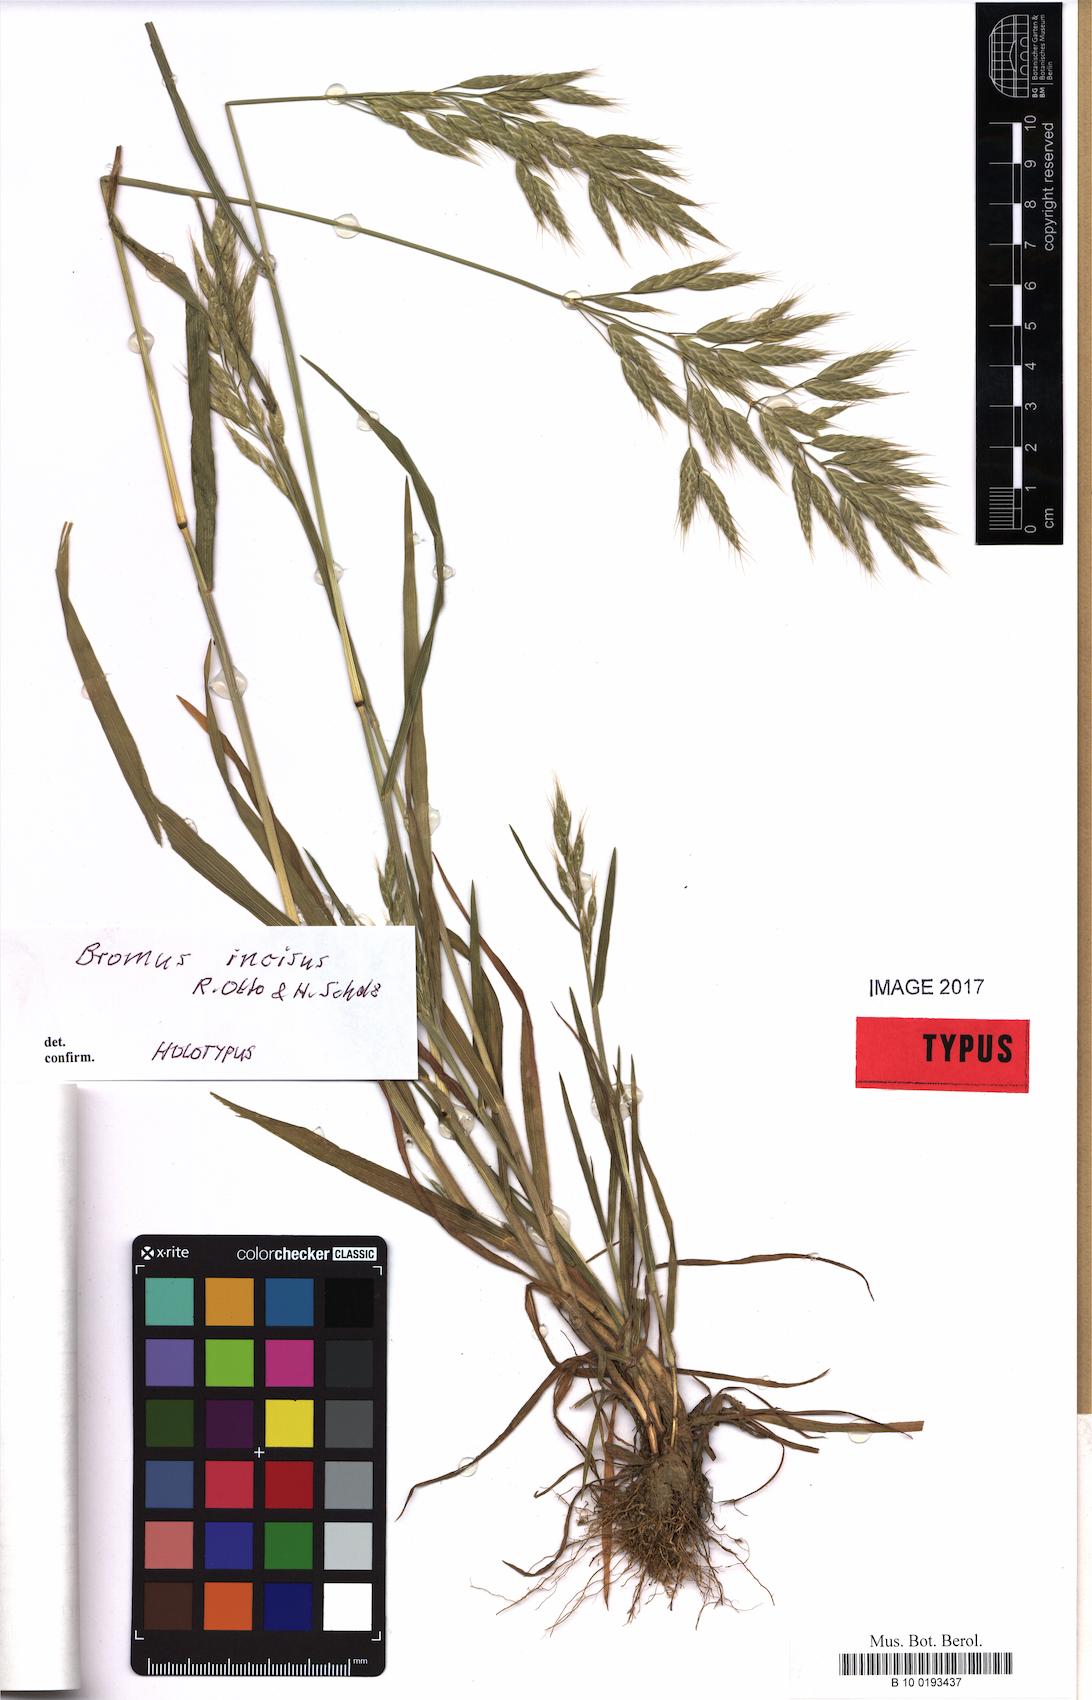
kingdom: Plantae
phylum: Tracheophyta
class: Liliopsida
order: Poales
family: Poaceae
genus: Bromus
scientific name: Bromus lepidus
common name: Slender soft-brome
